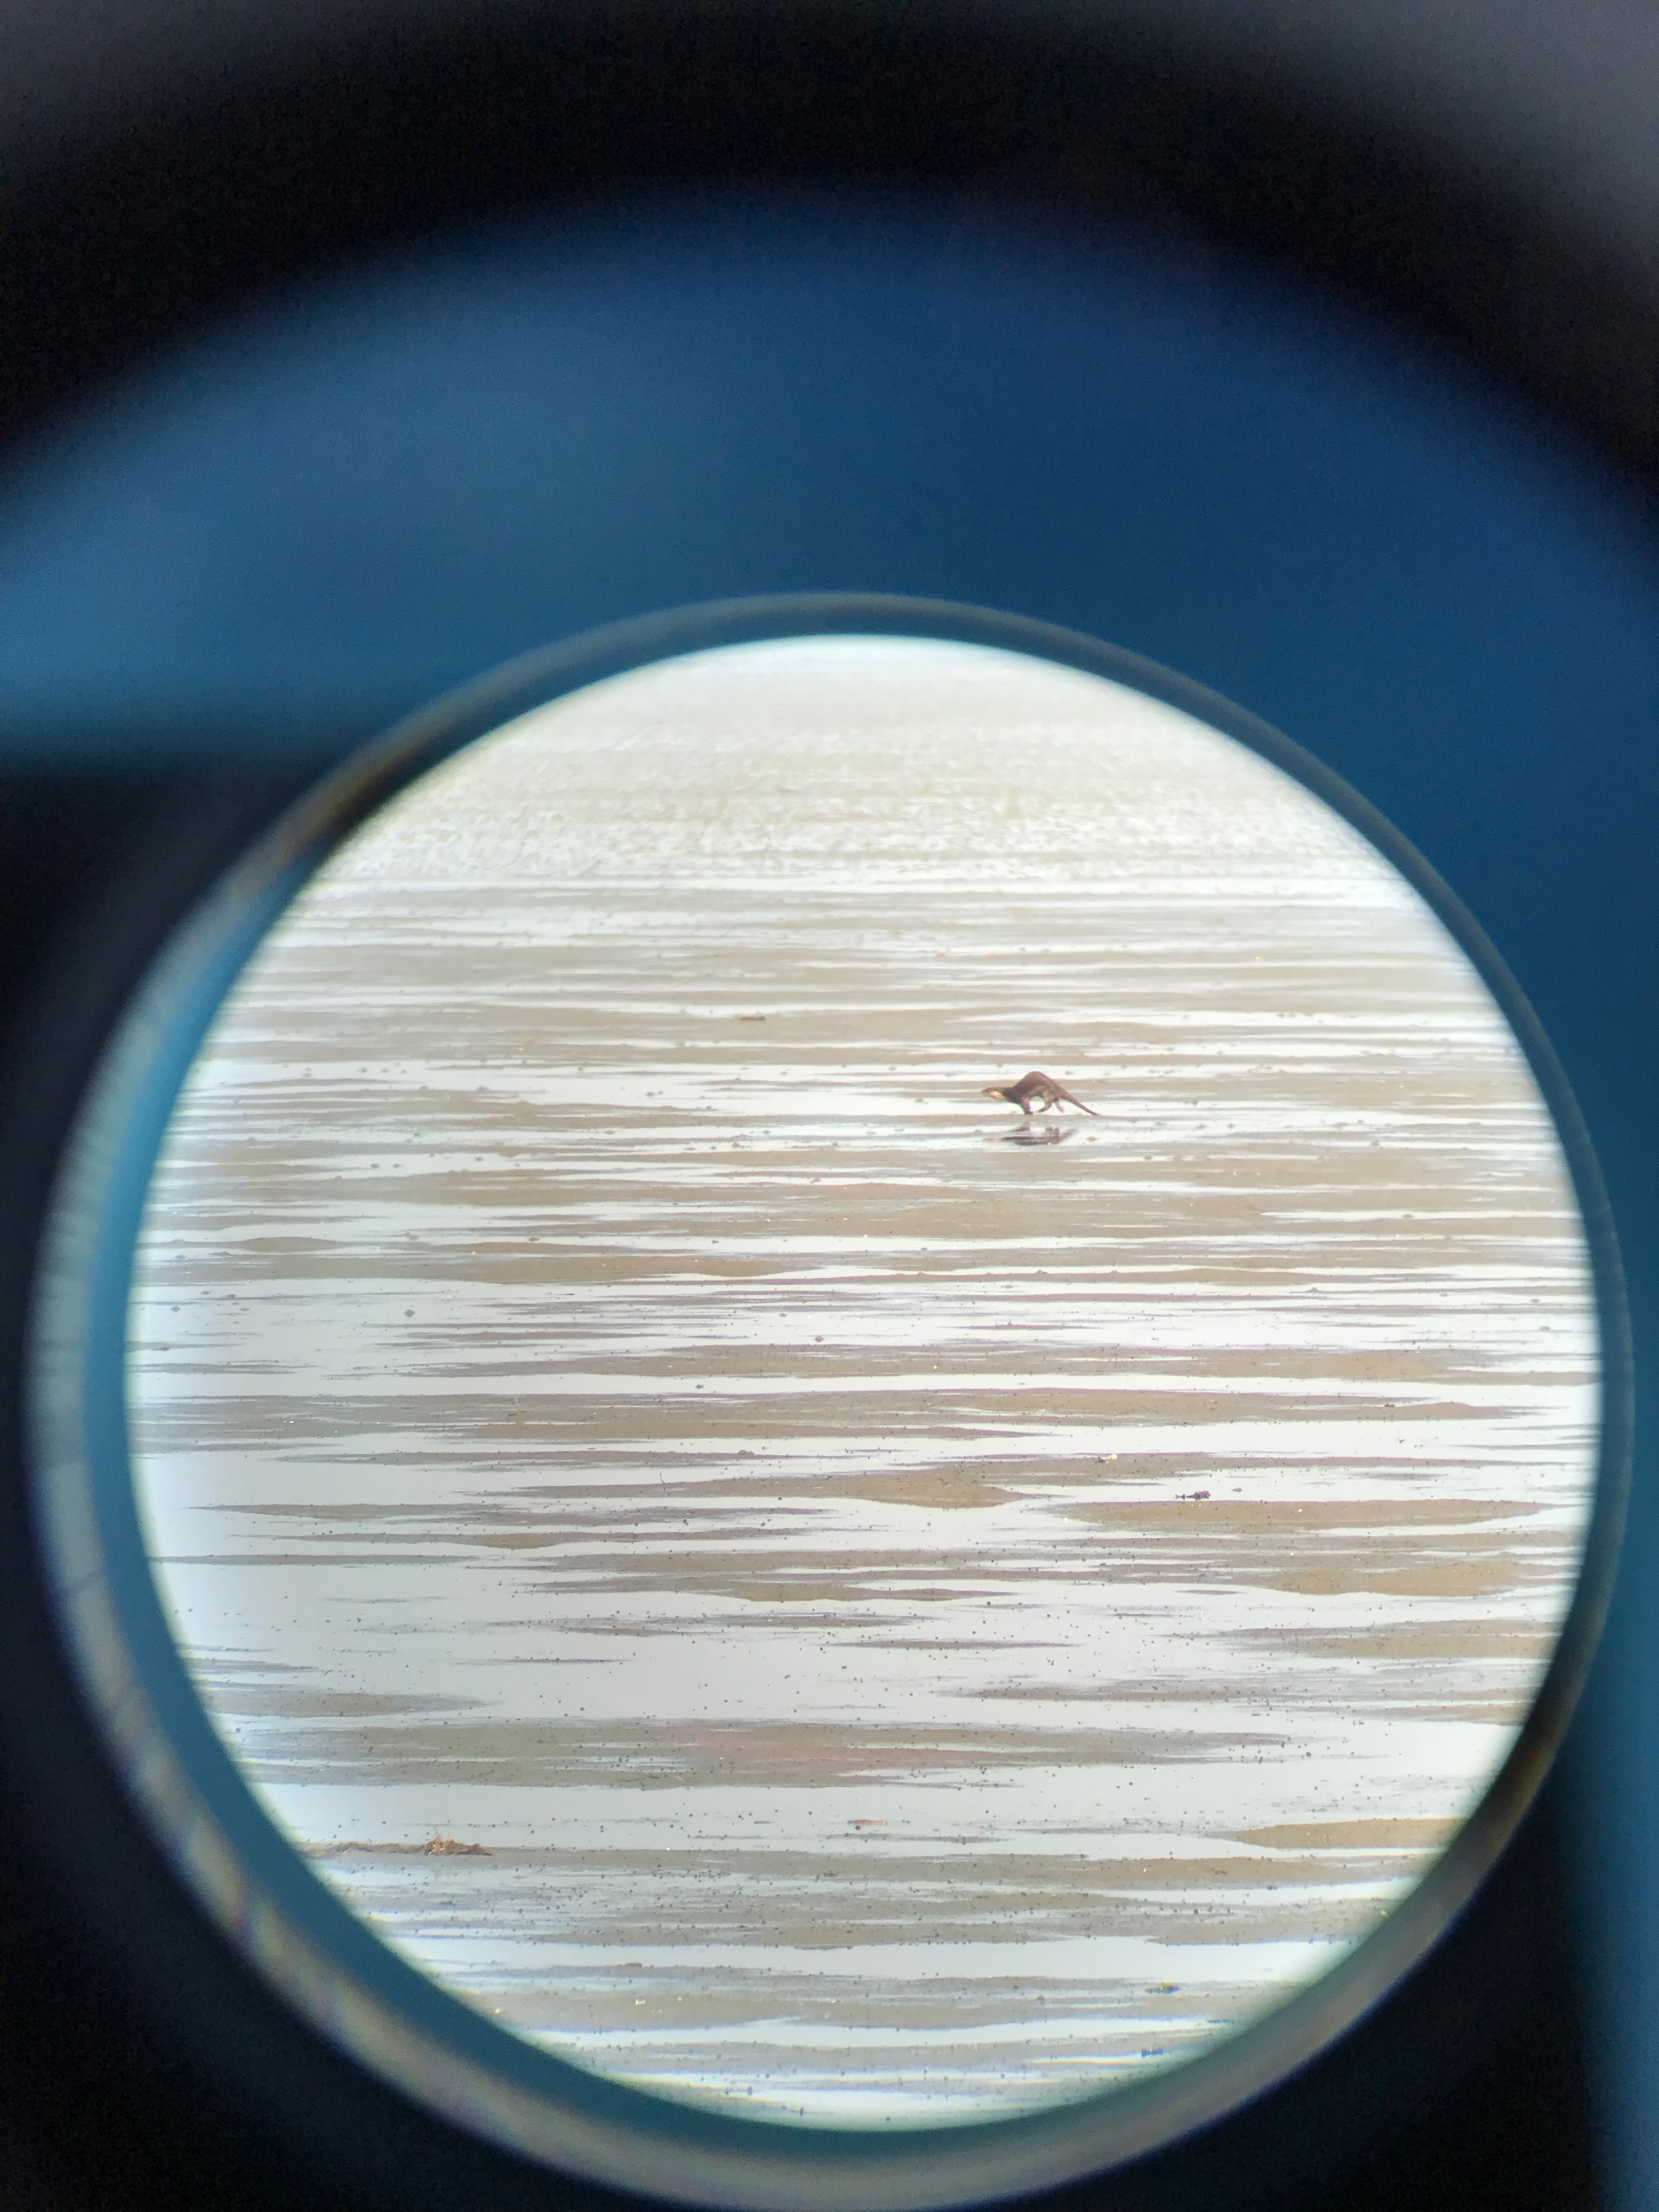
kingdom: Animalia
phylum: Chordata
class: Mammalia
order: Carnivora
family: Mustelidae
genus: Lutra
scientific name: Lutra lutra
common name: Odder
